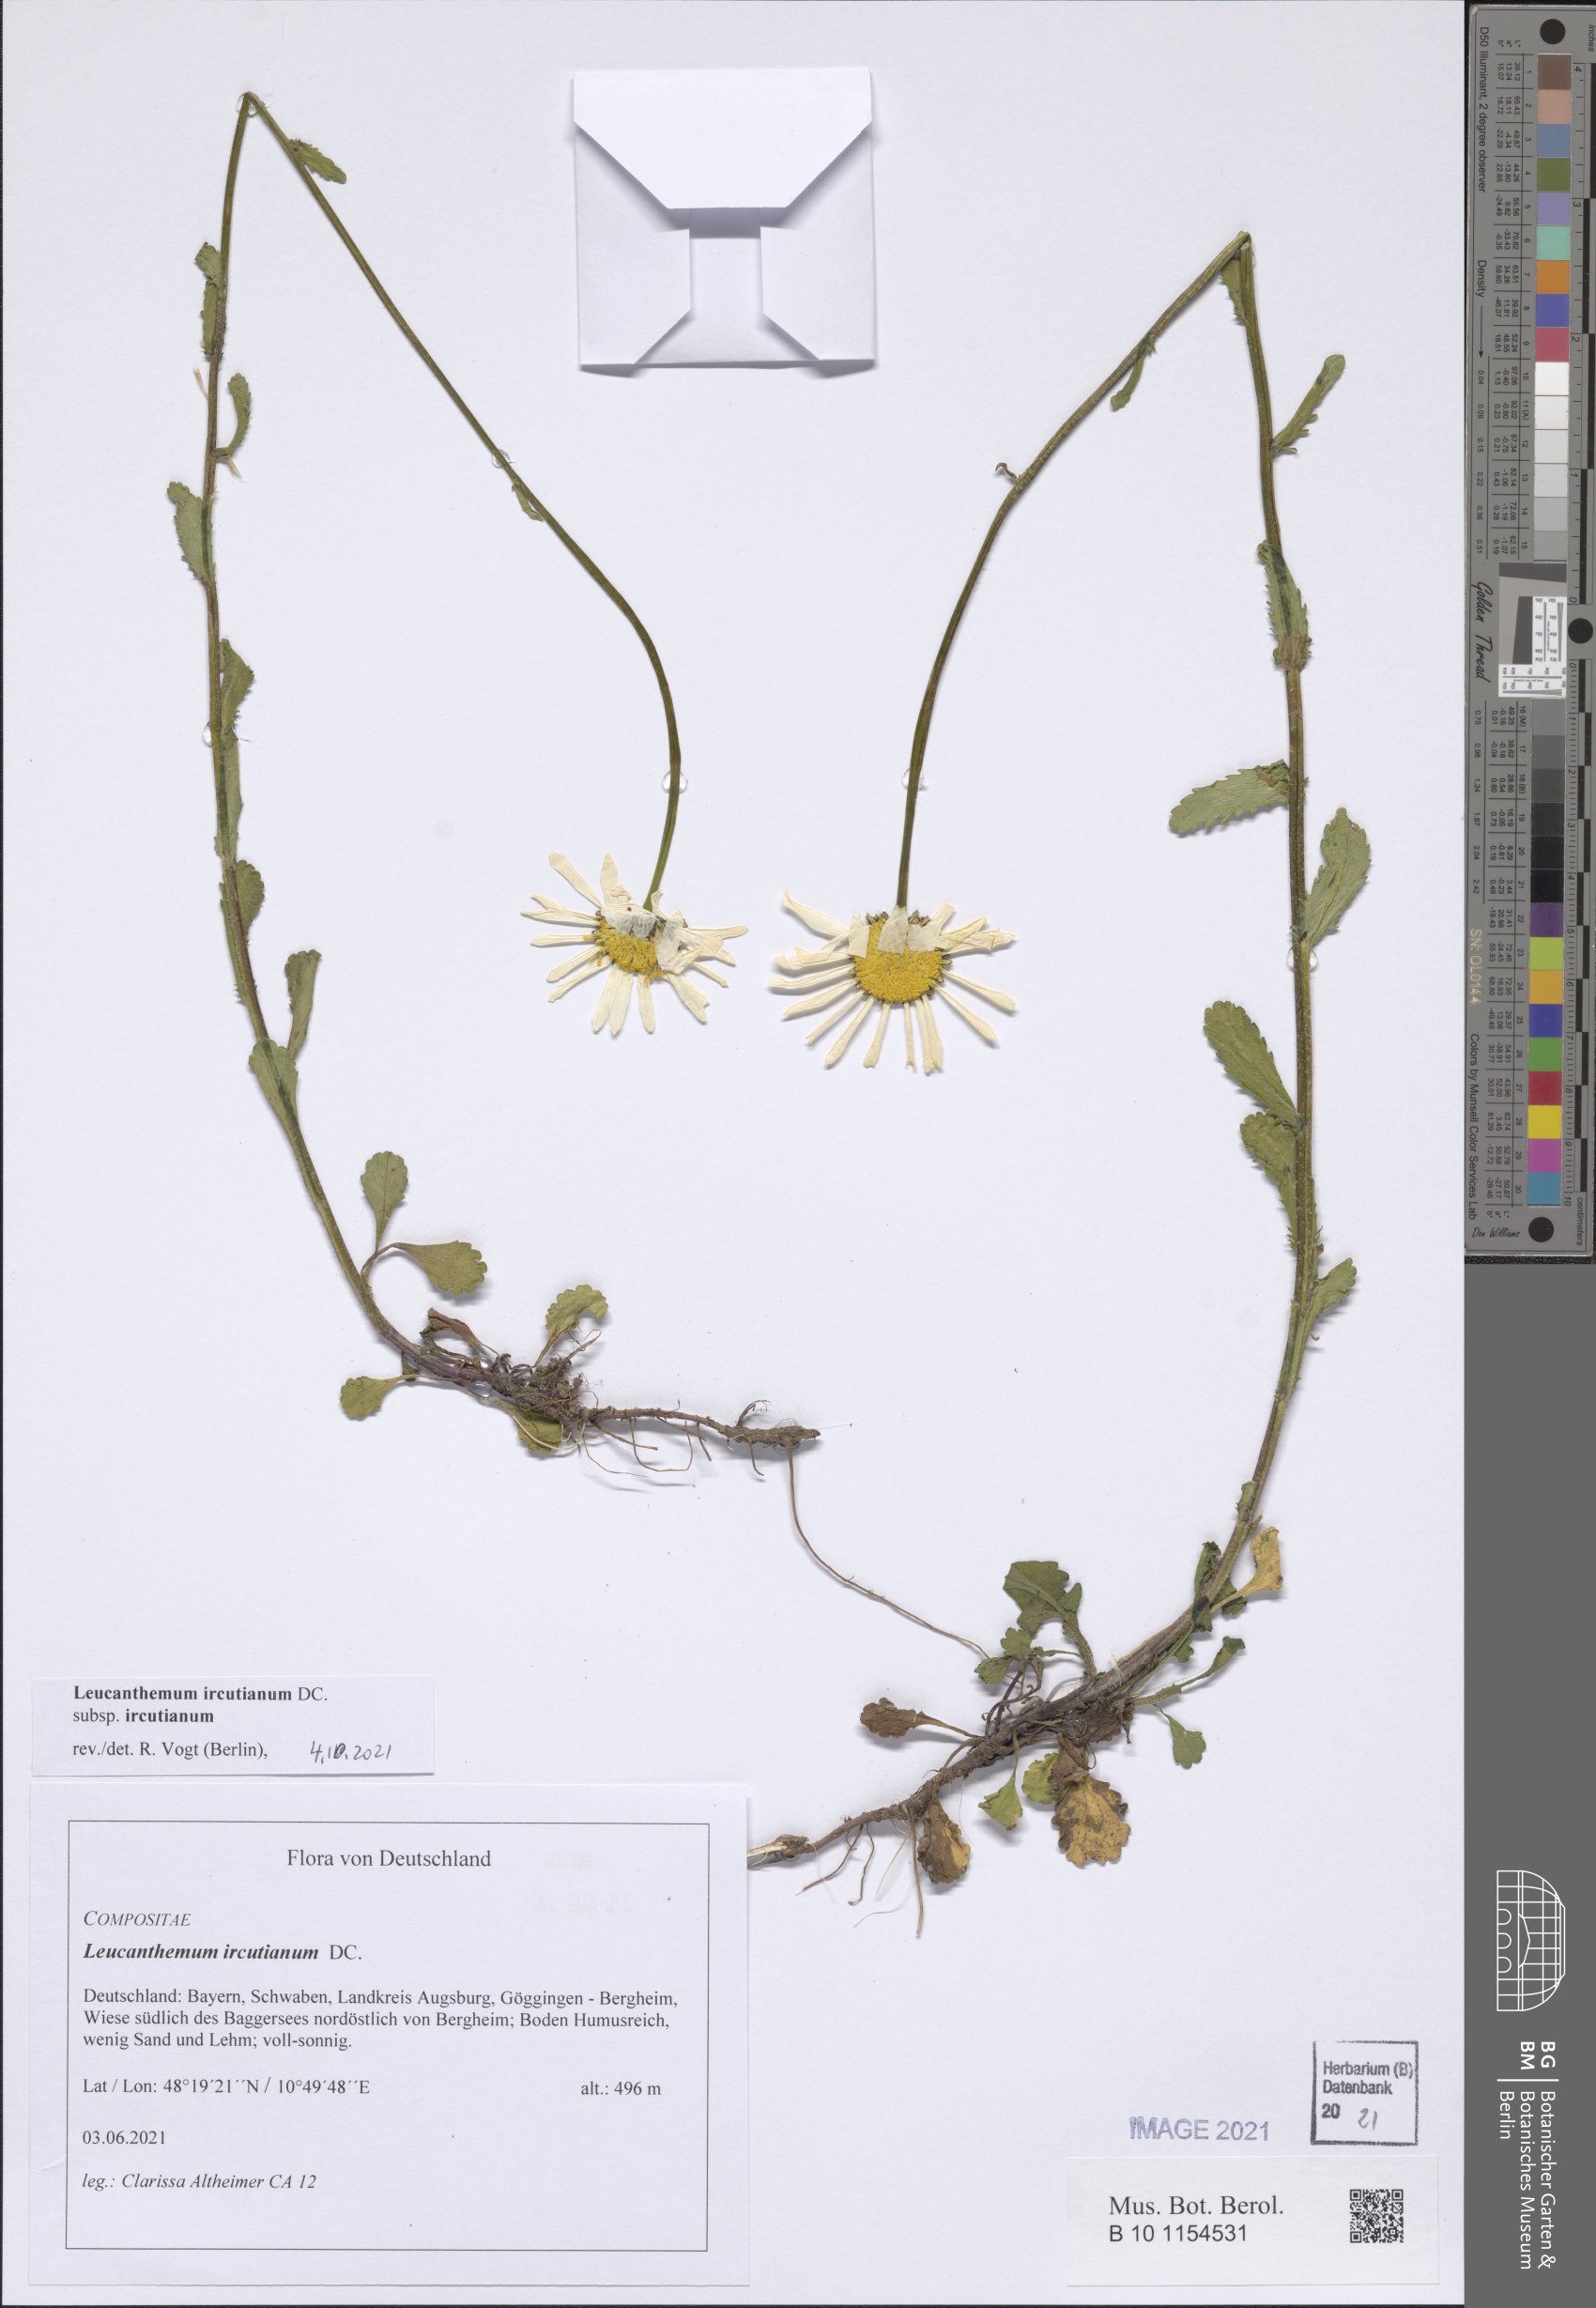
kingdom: Plantae
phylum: Tracheophyta
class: Magnoliopsida
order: Asterales
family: Asteraceae
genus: Leucanthemum
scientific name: Leucanthemum ircutianum
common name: Daisy
